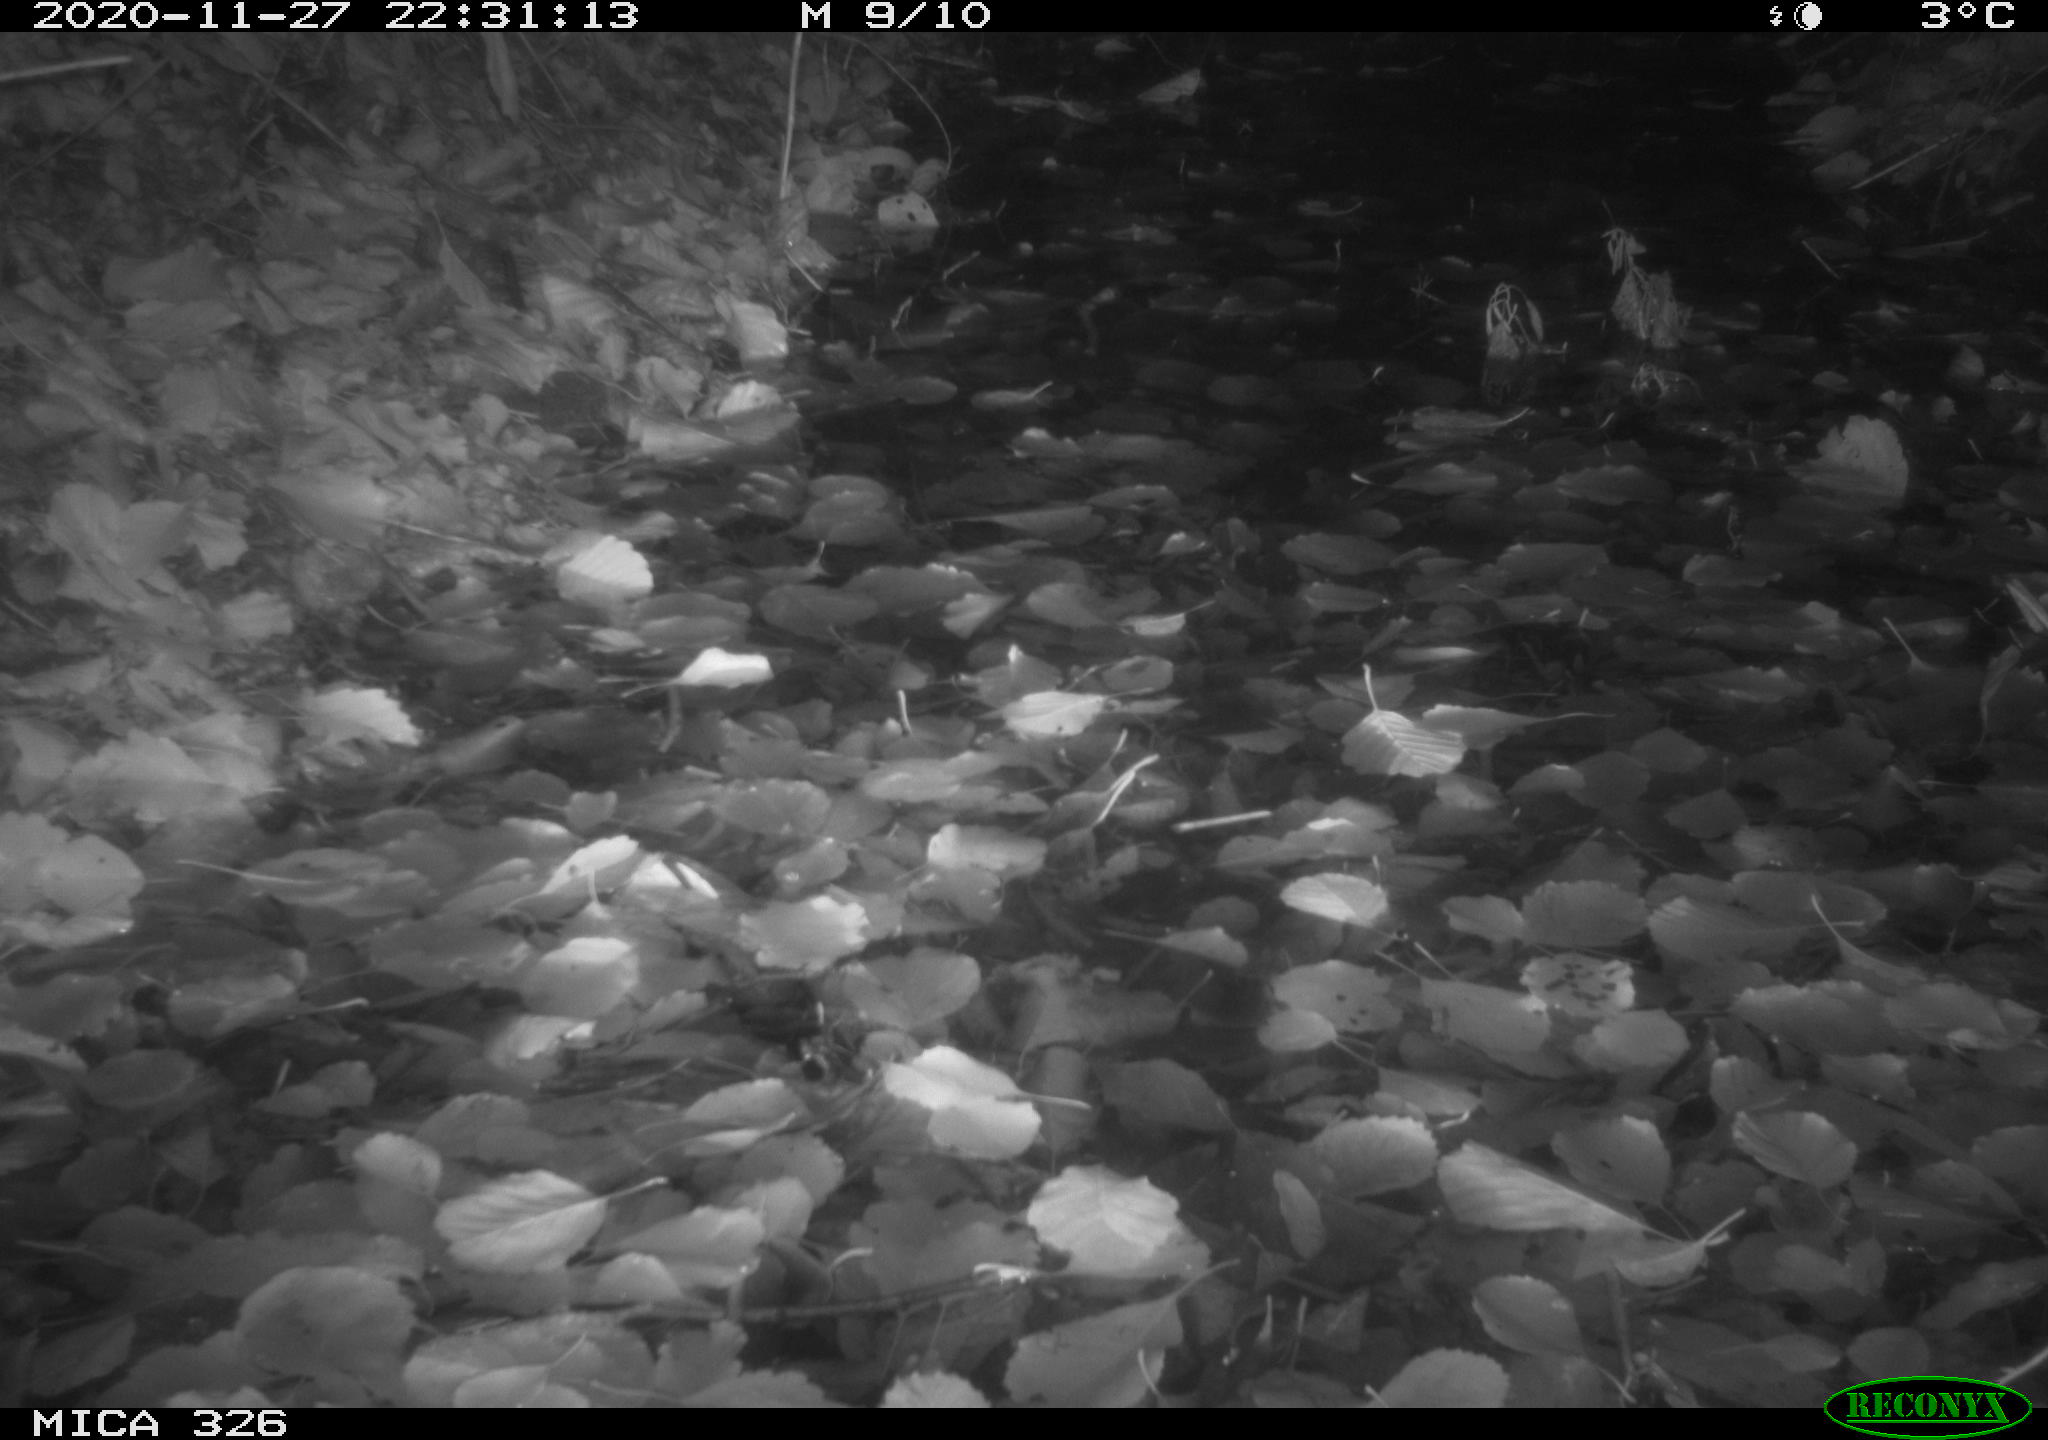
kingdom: Animalia
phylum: Chordata
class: Mammalia
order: Rodentia
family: Cricetidae
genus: Ondatra
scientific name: Ondatra zibethicus
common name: Muskrat
